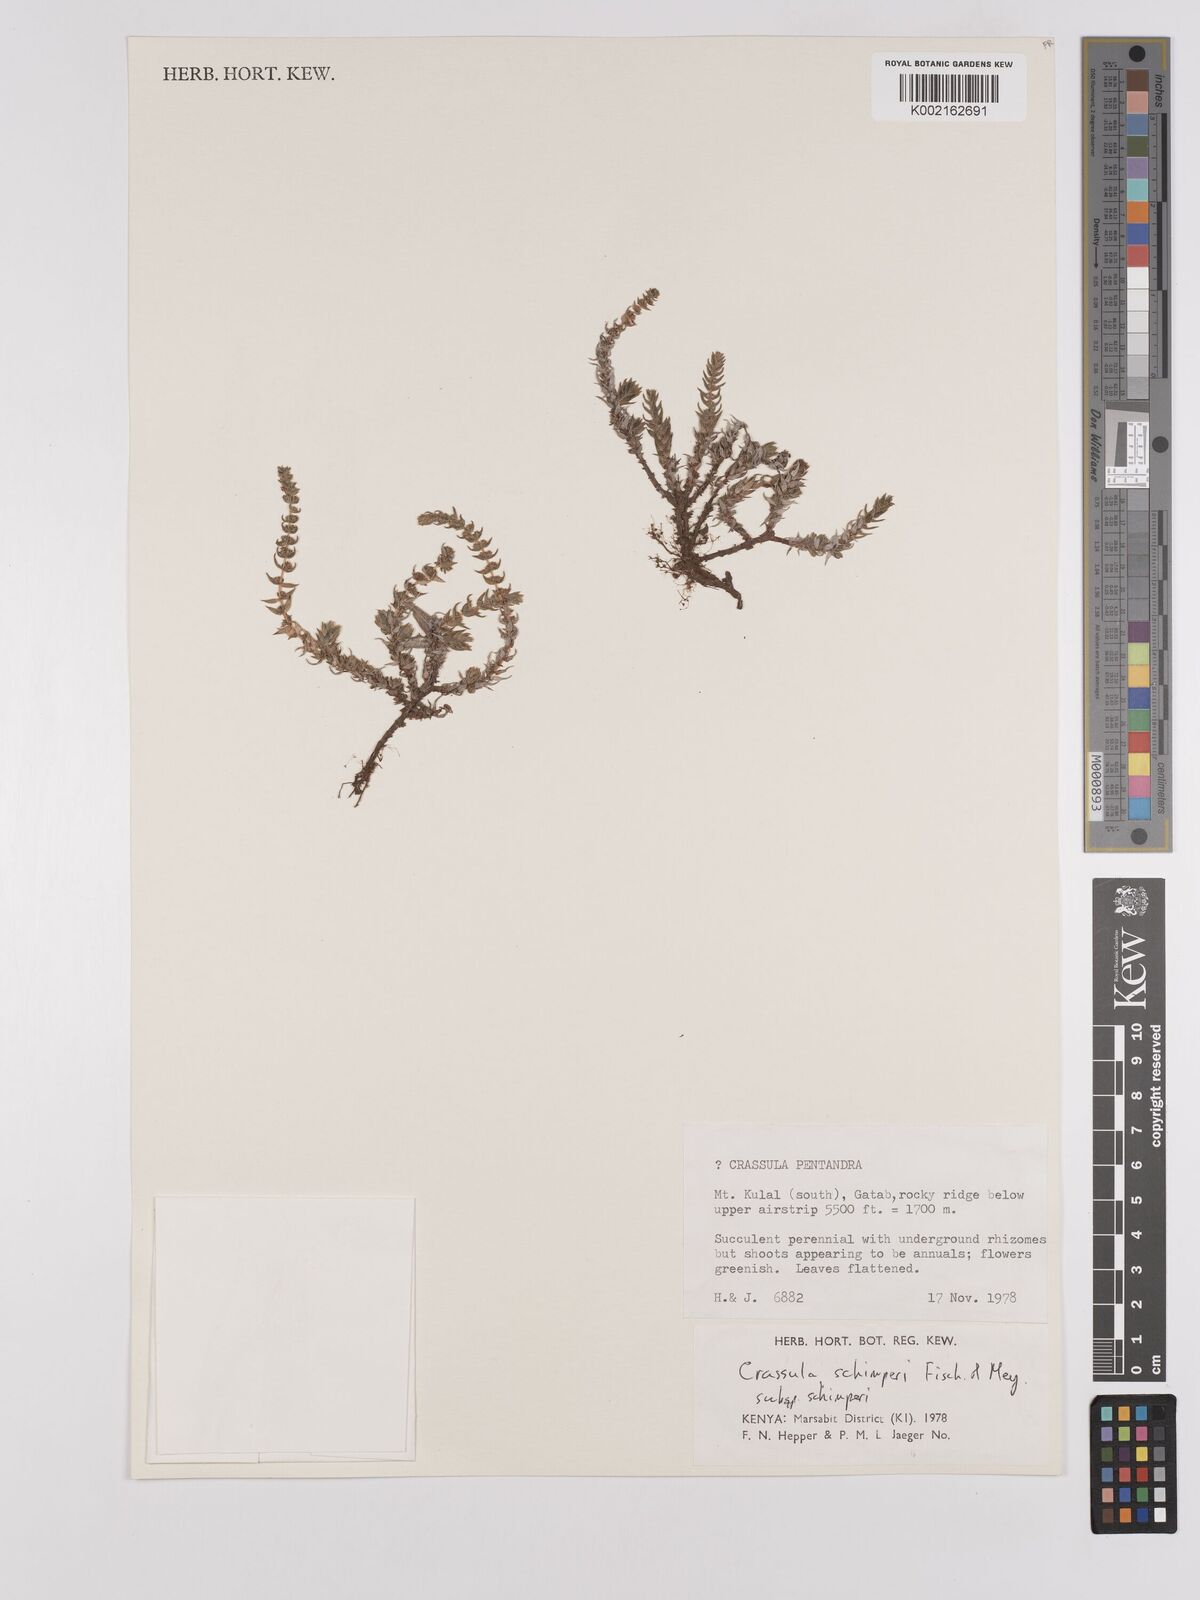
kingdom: Plantae
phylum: Tracheophyta
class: Magnoliopsida
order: Saxifragales
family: Crassulaceae
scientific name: Crassulaceae
